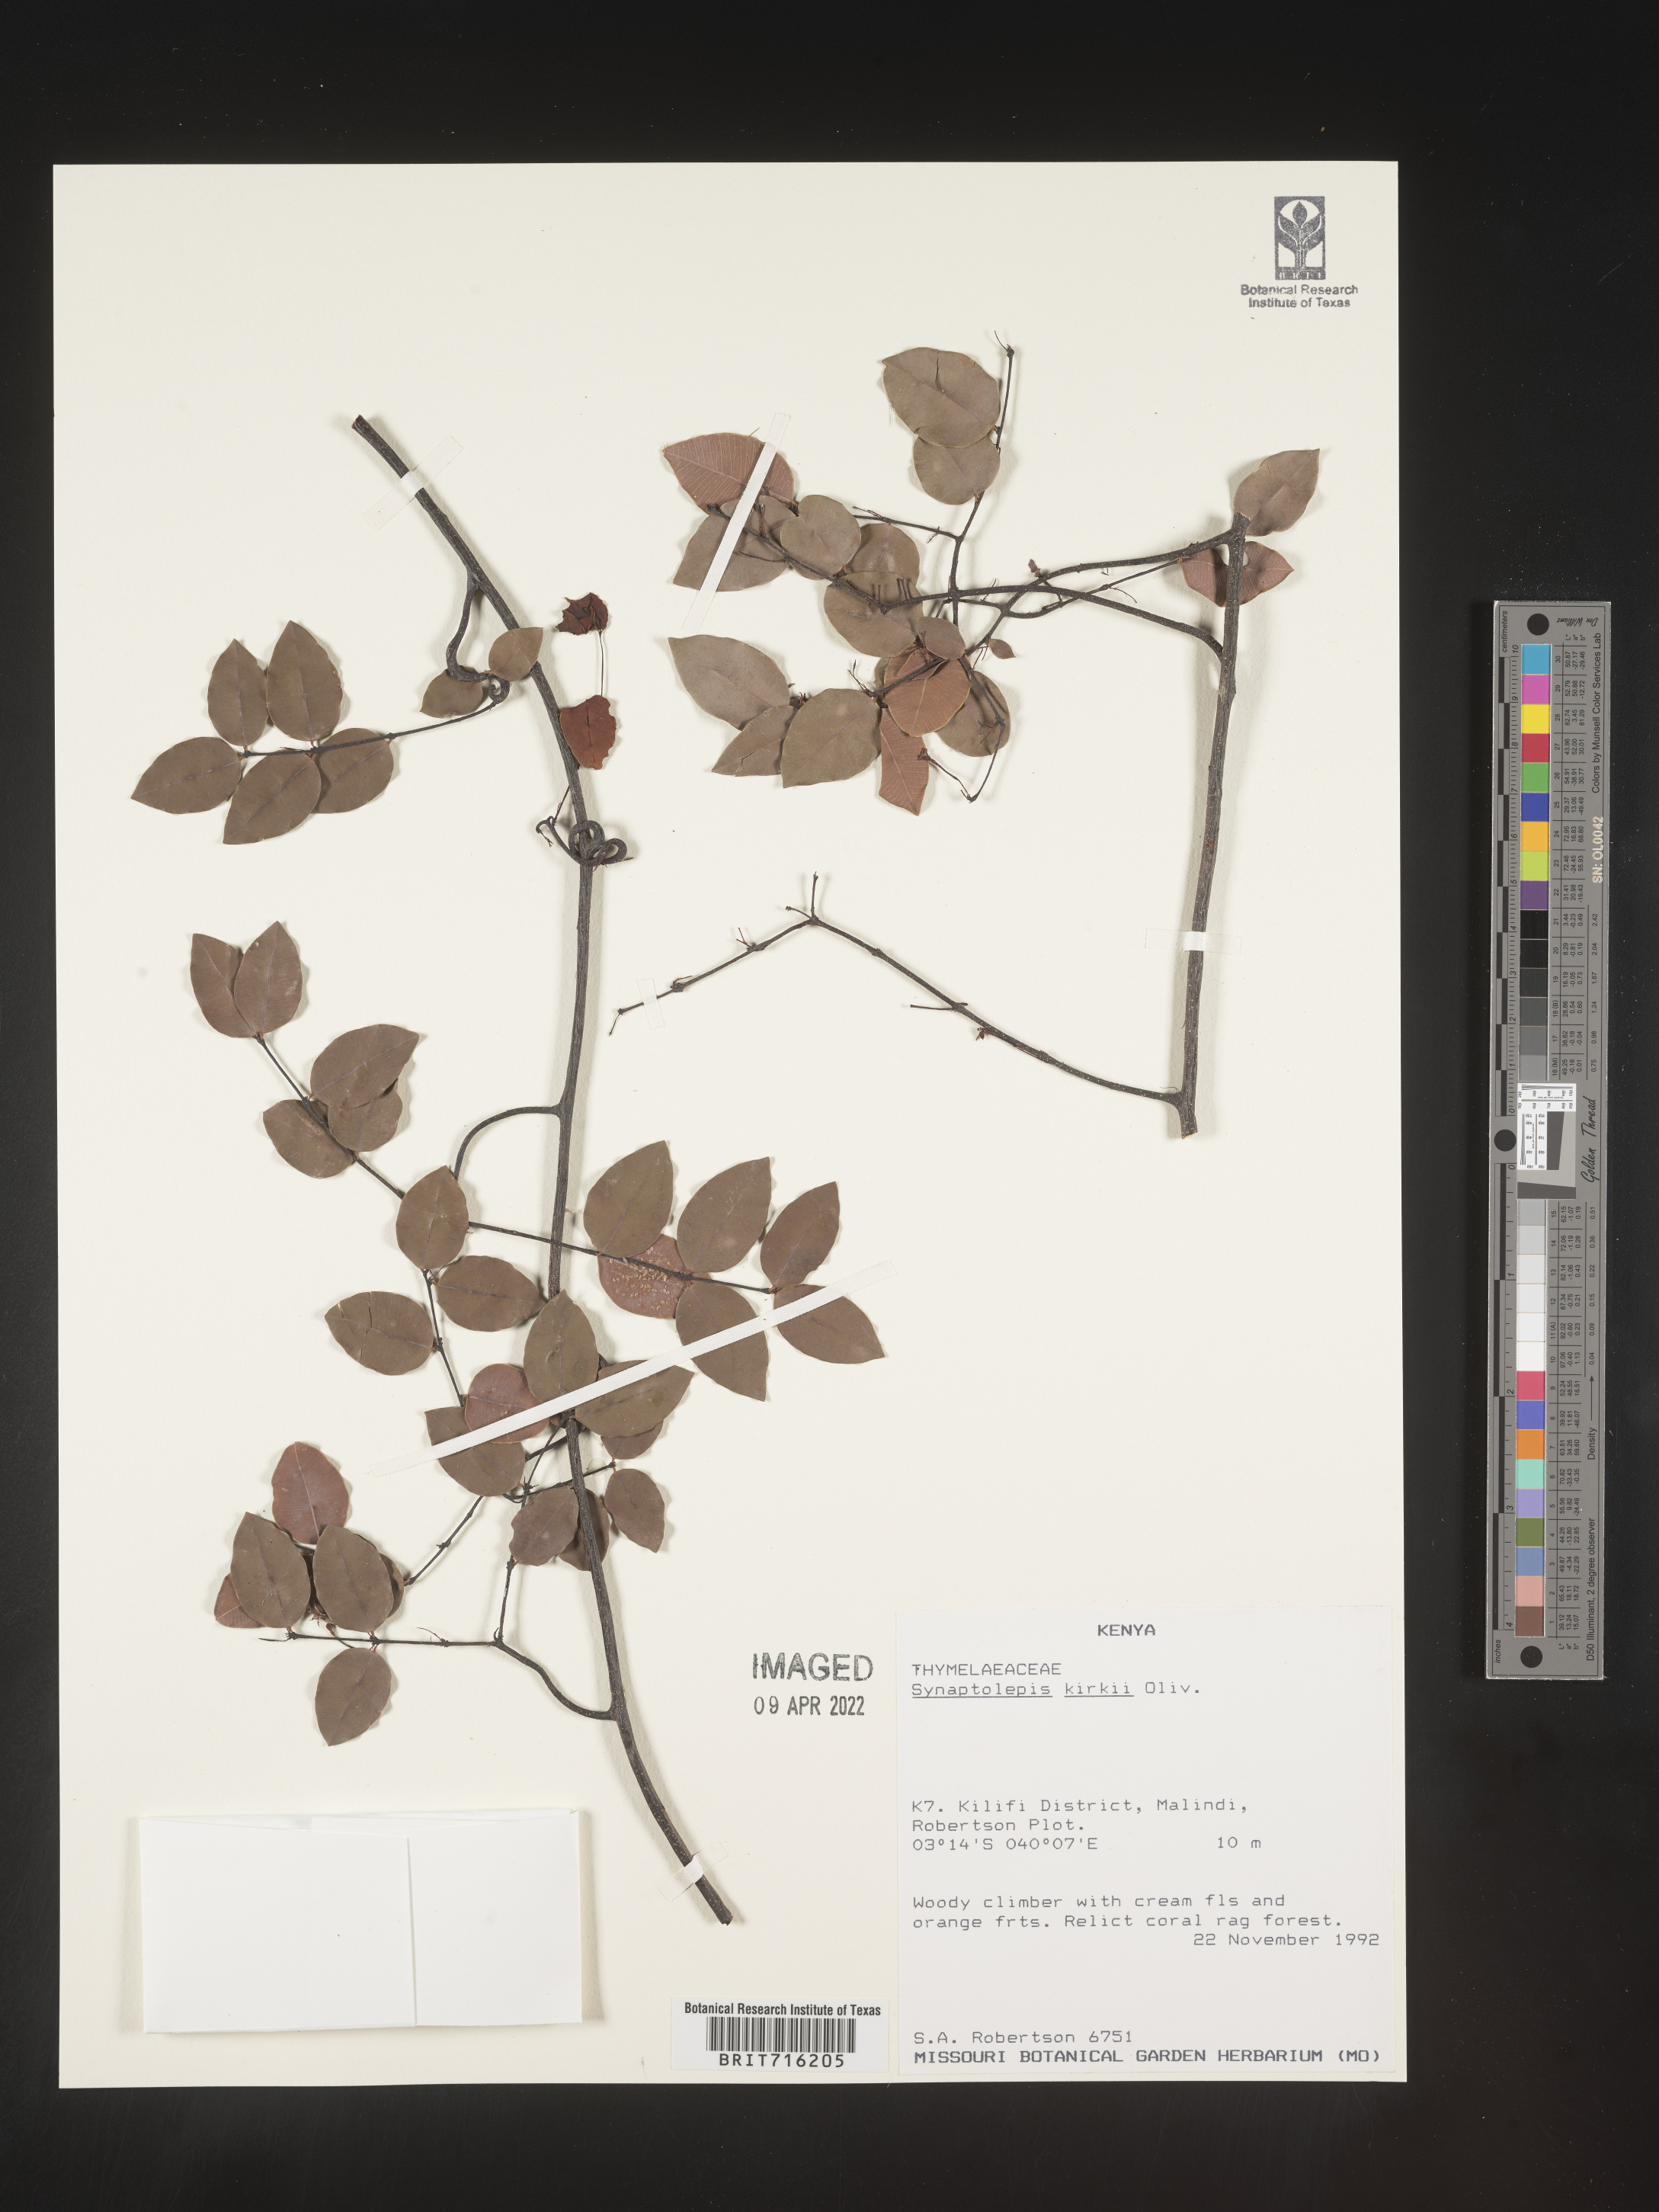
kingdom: Plantae
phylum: Tracheophyta
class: Magnoliopsida
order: Malvales
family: Thymelaeaceae
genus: Synaptolepis
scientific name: Synaptolepis
